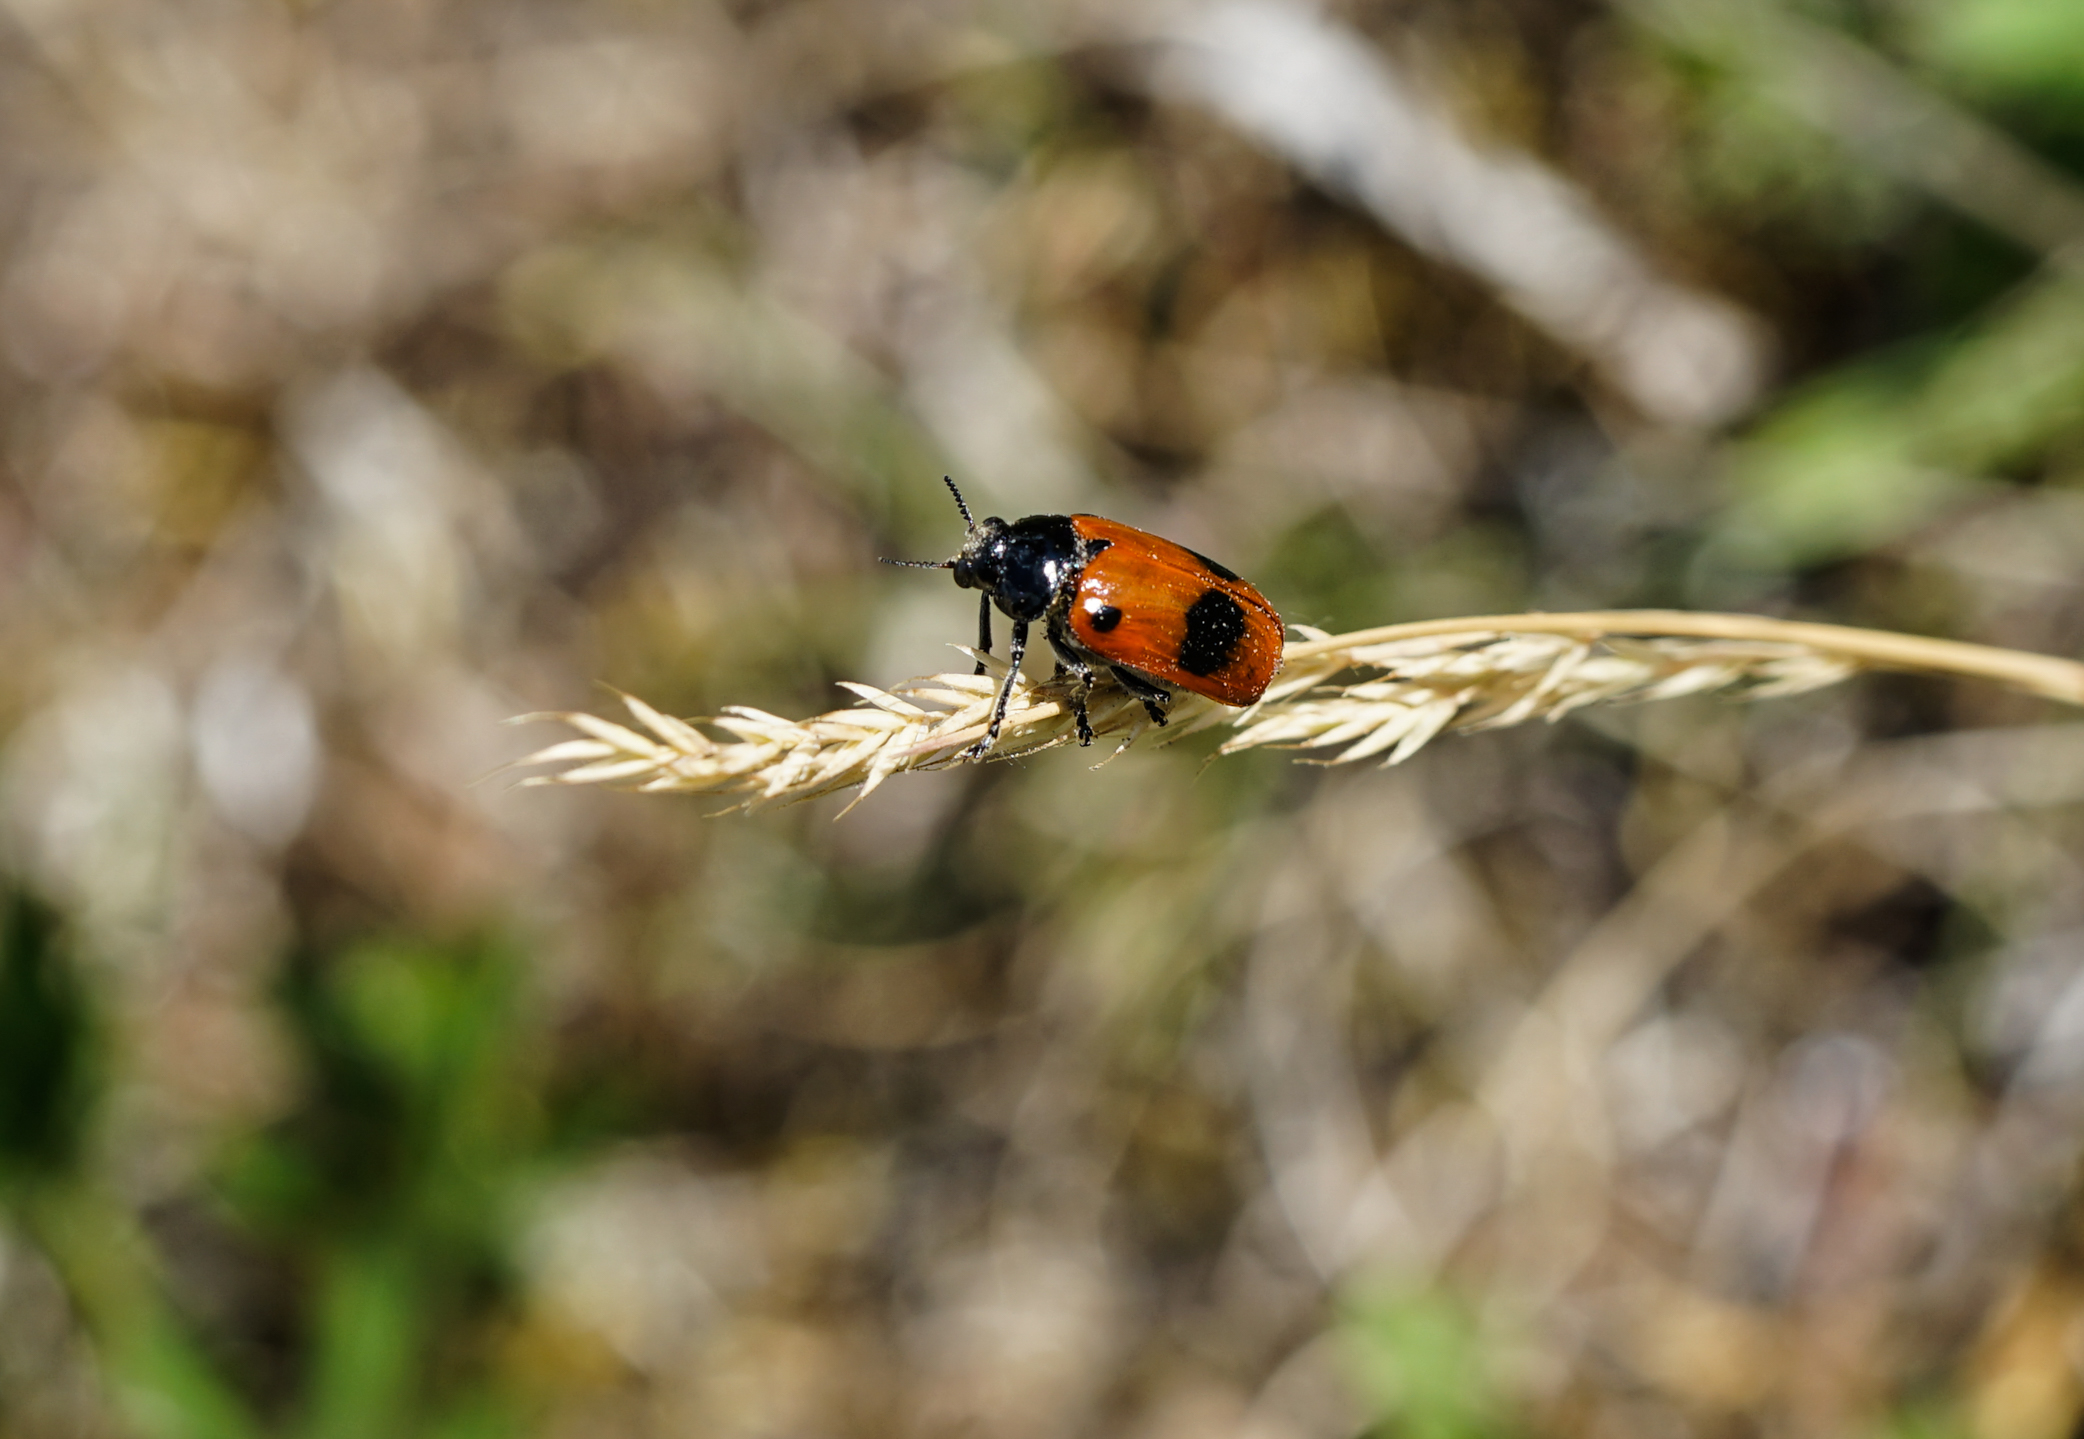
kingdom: Animalia
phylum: Arthropoda
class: Insecta
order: Coleoptera
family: Chrysomelidae
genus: Clytra
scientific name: Clytra quadripunctata
